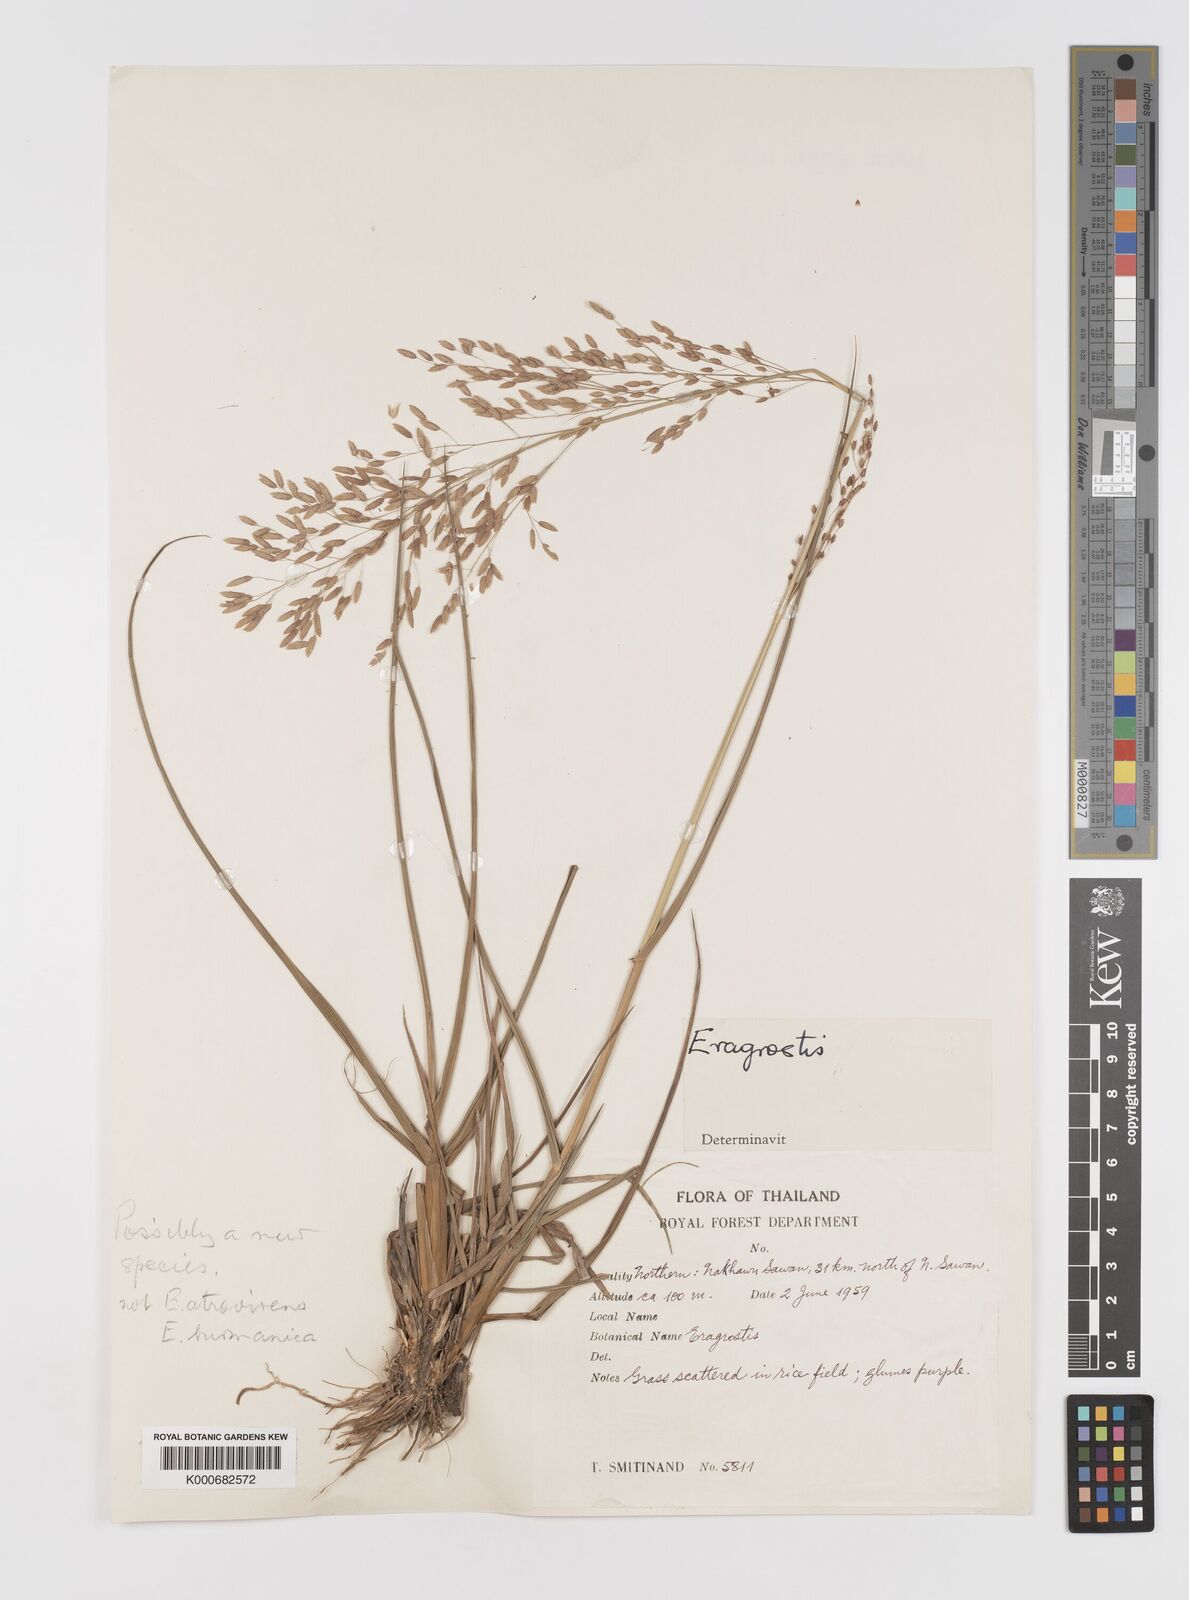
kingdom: Plantae
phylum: Tracheophyta
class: Liliopsida
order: Poales
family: Poaceae
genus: Eragrostis
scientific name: Eragrostis
